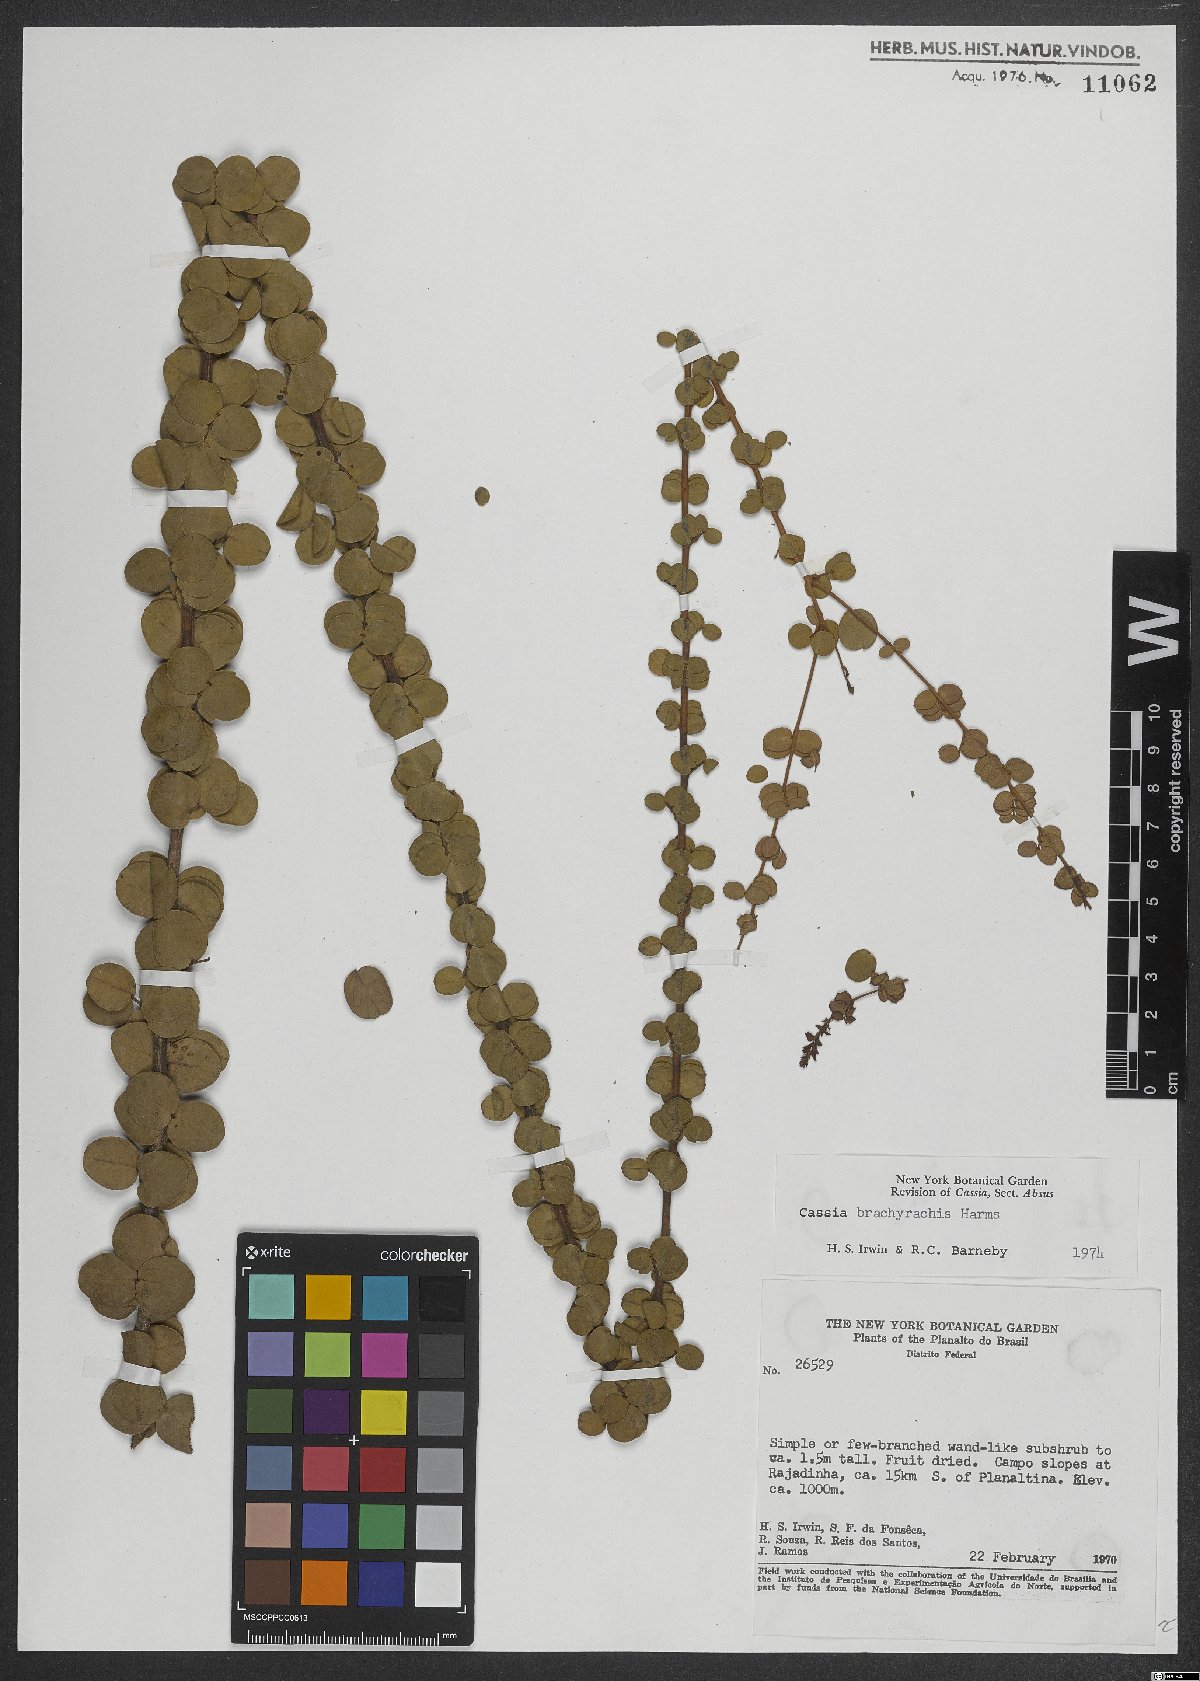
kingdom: Plantae
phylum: Tracheophyta
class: Magnoliopsida
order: Fabales
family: Fabaceae
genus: Chamaecrista
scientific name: Chamaecrista brachyrachis
